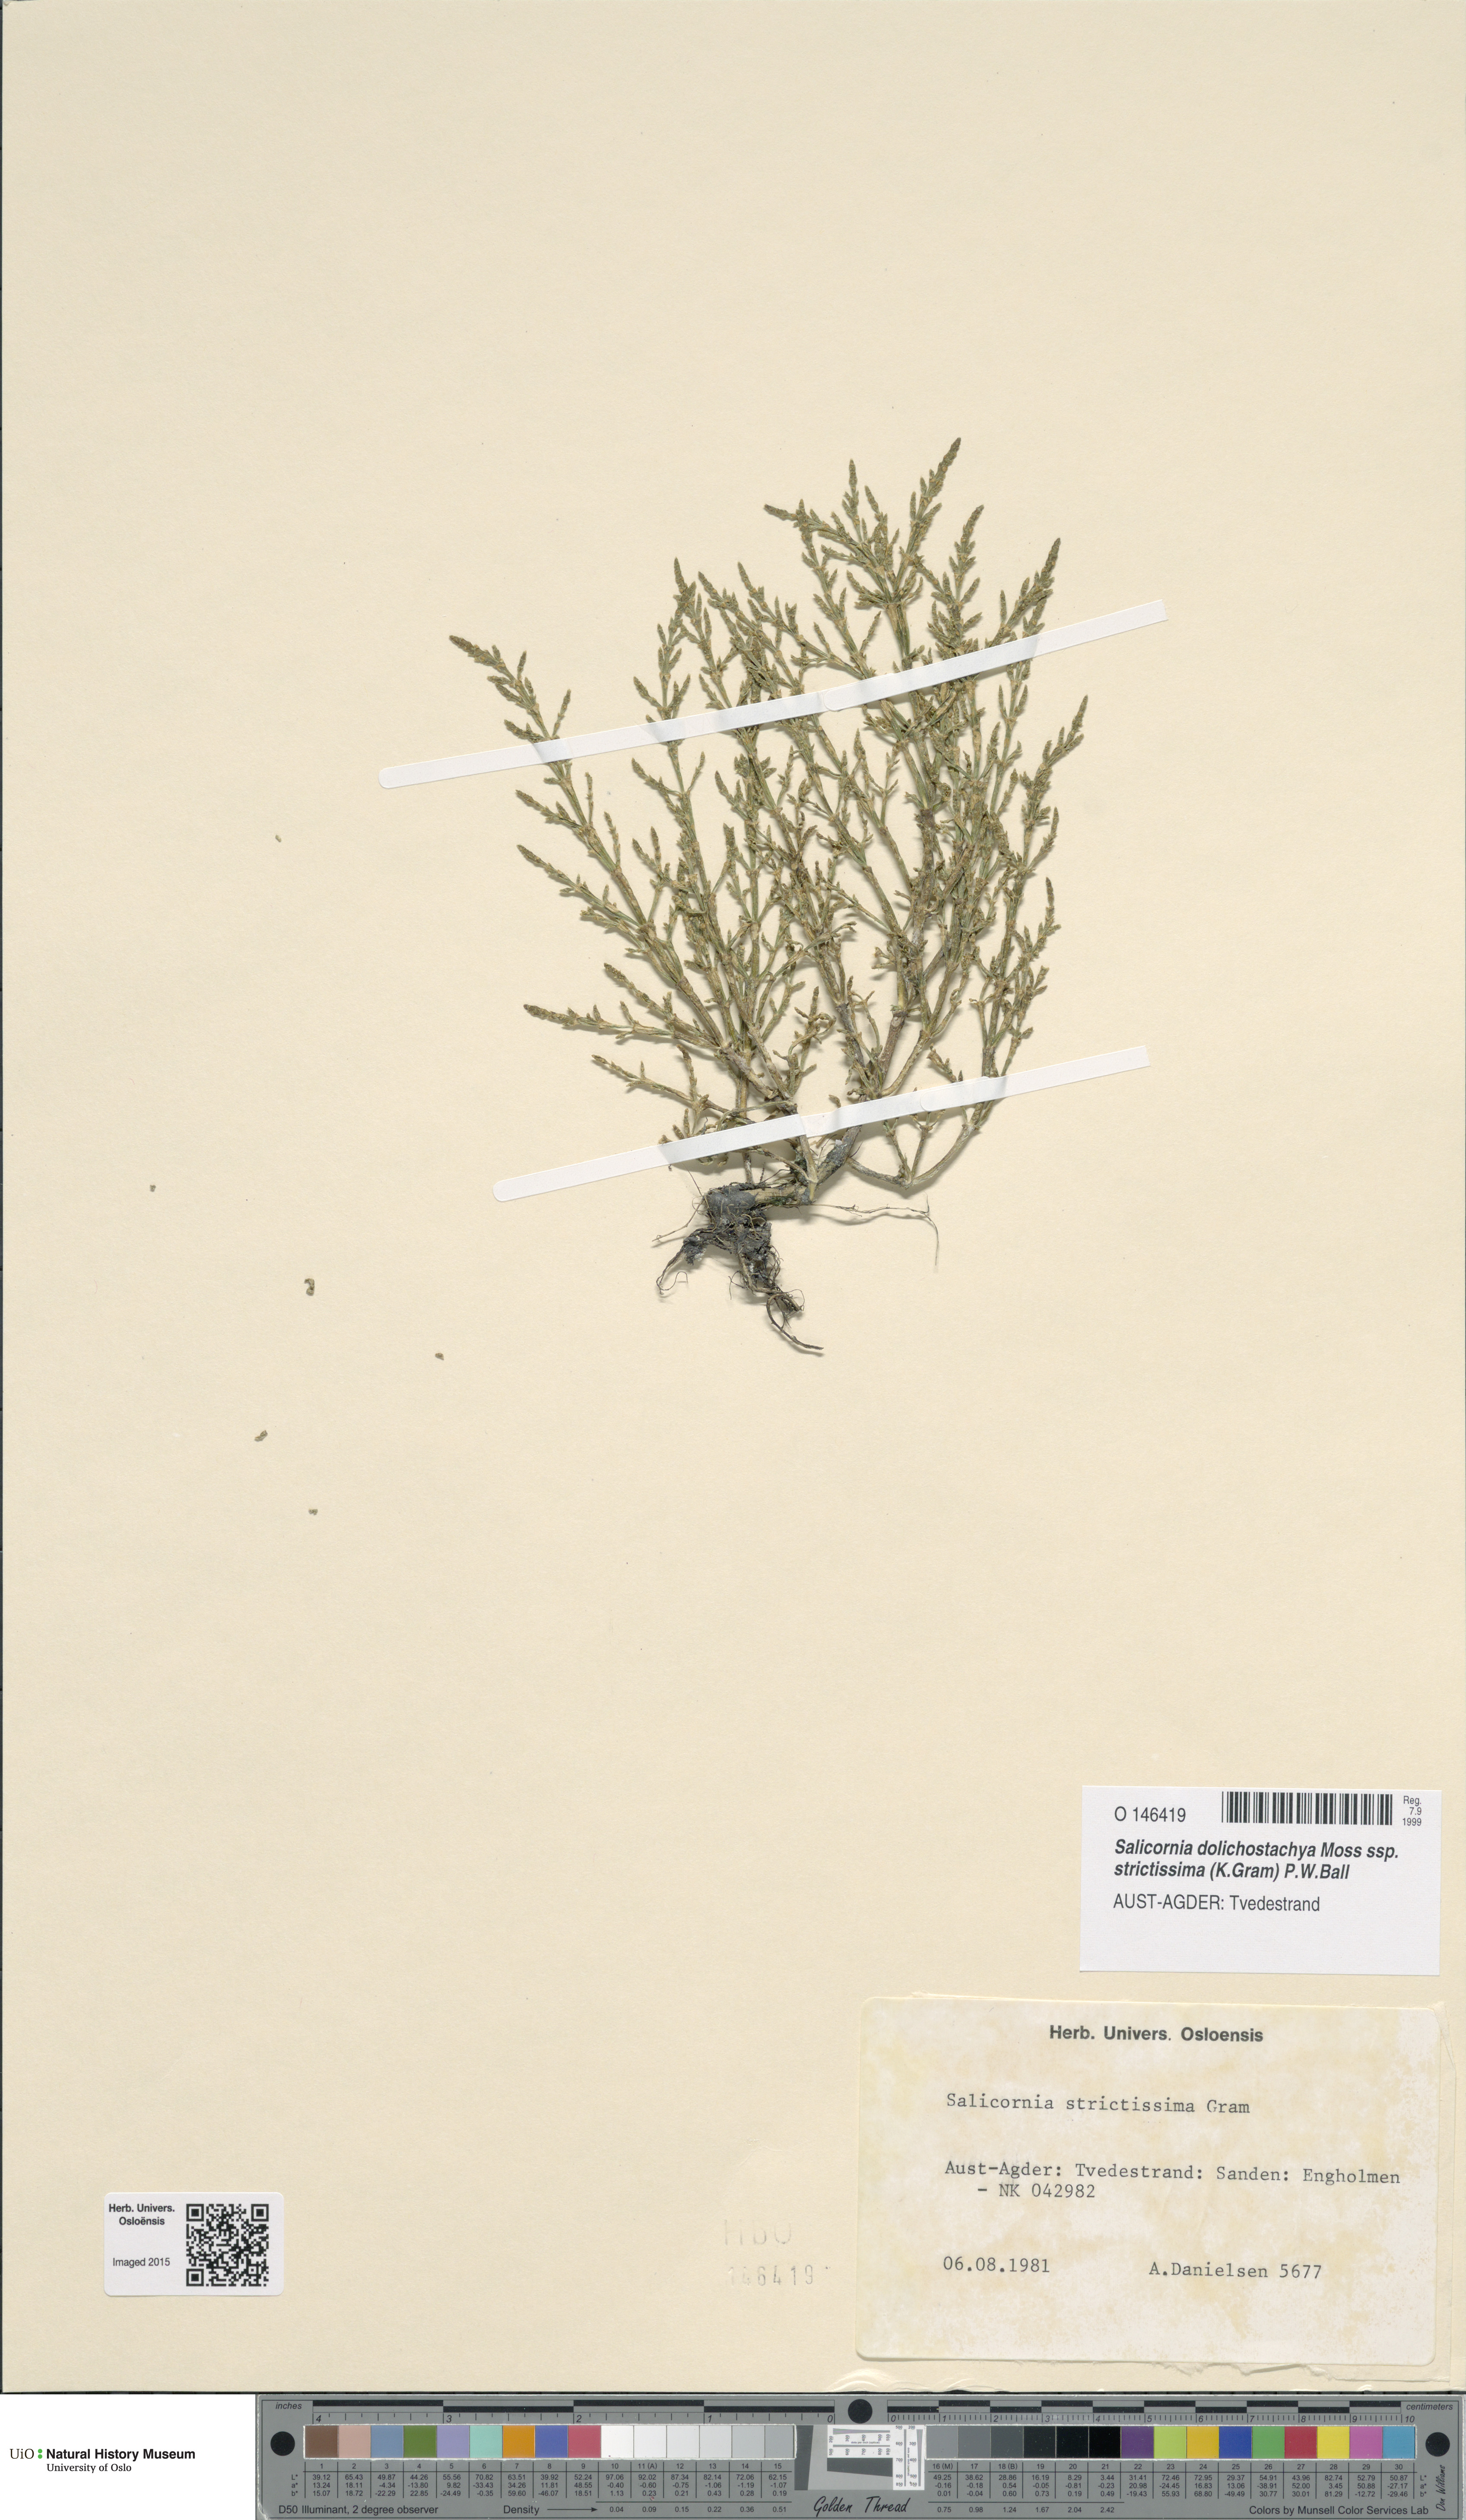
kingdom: Plantae
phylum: Tracheophyta
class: Magnoliopsida
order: Caryophyllales
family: Amaranthaceae
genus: Salicornia
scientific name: Salicornia procumbens
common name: Long-spiked glasswort
